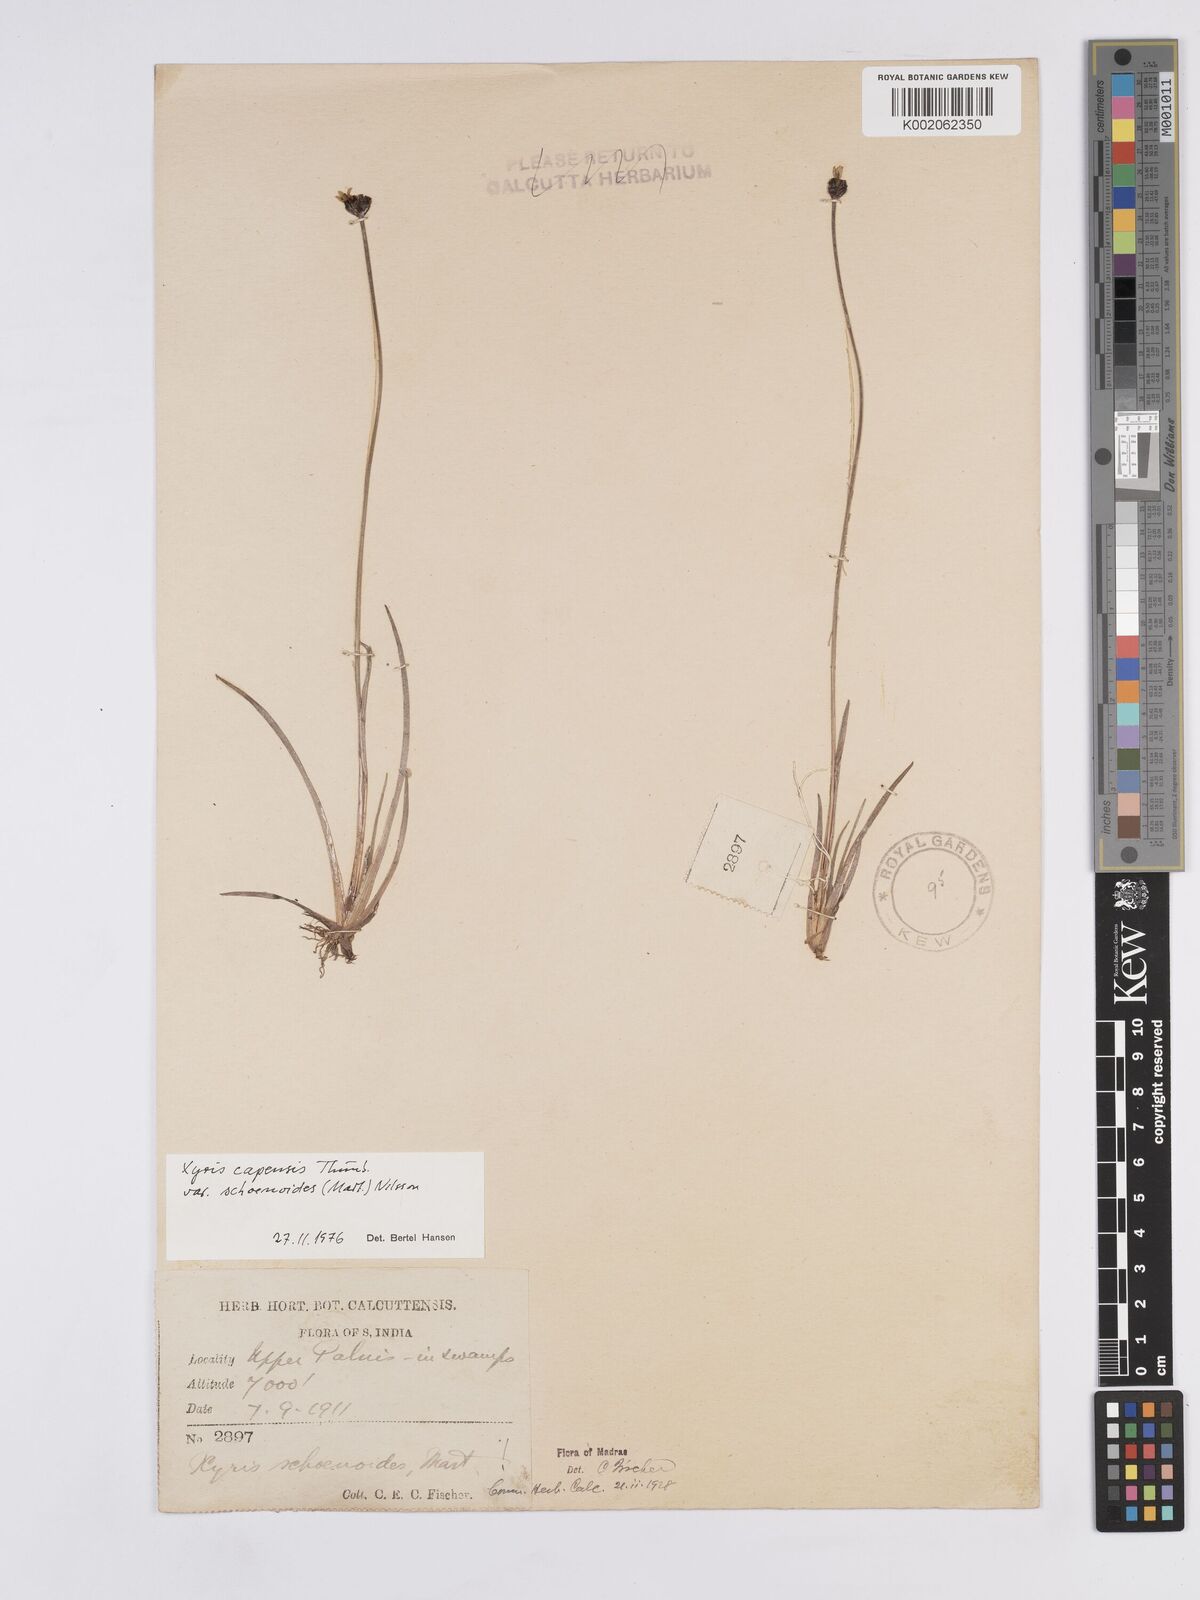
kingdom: Plantae
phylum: Tracheophyta
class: Liliopsida
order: Poales
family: Xyridaceae
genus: Xyris
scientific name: Xyris capensis
